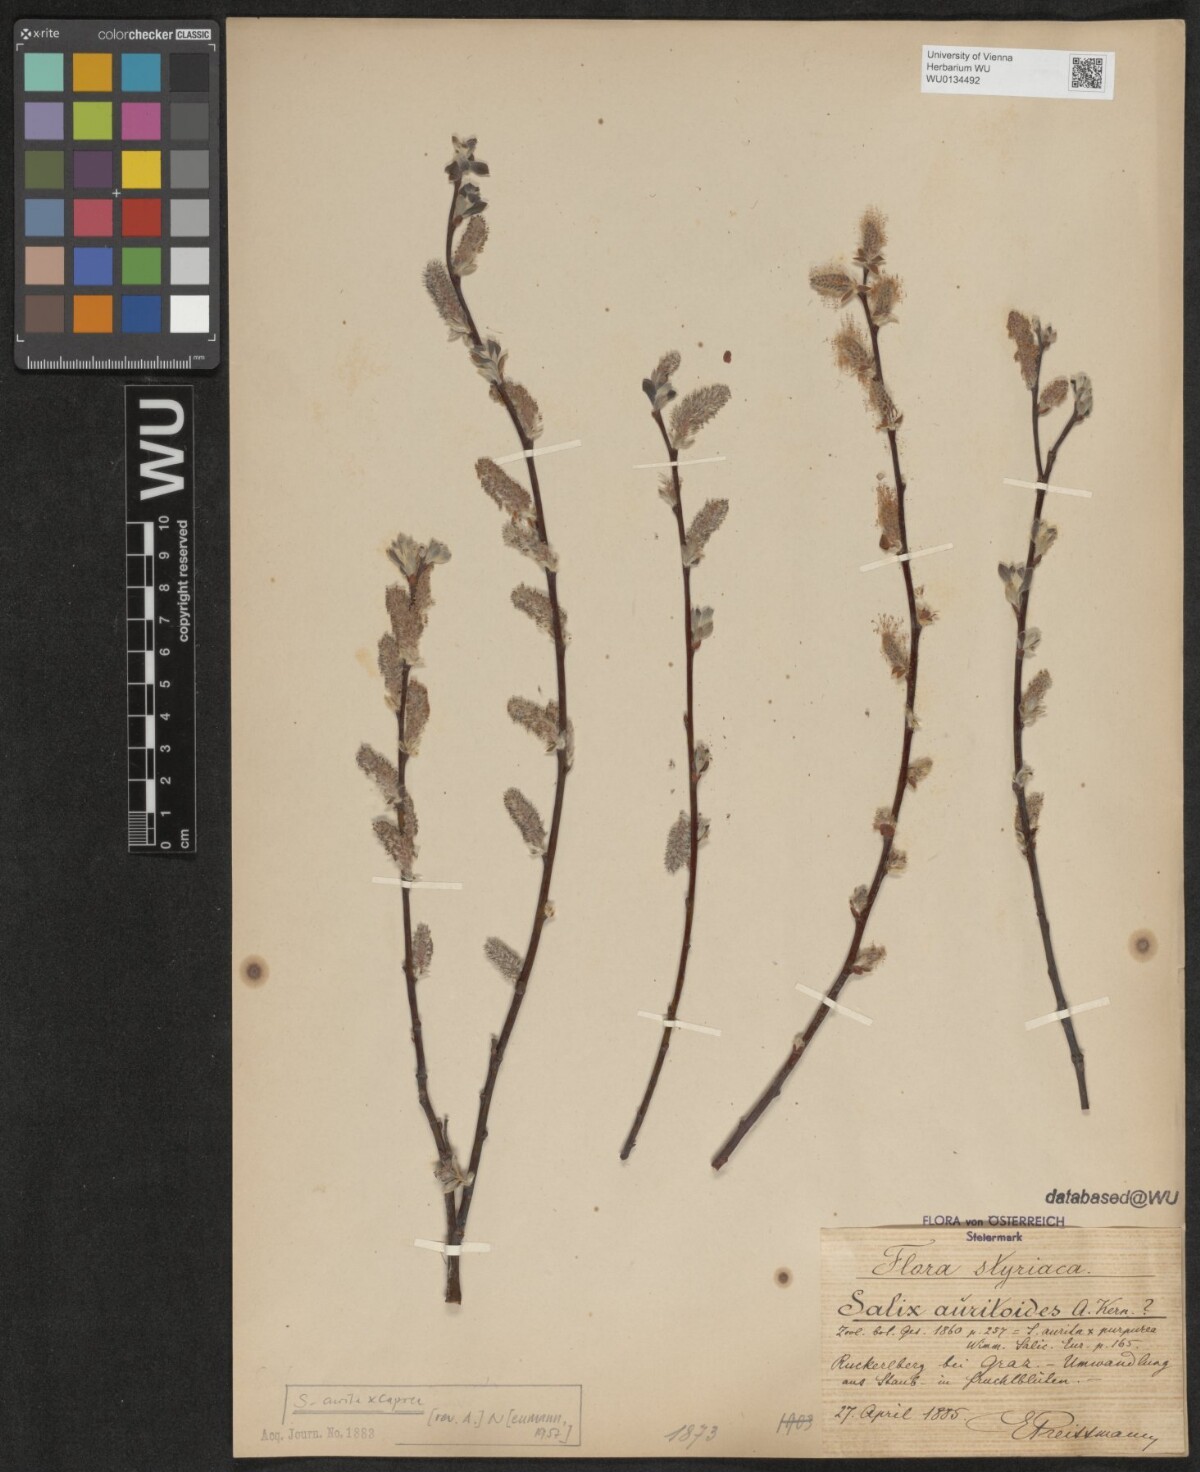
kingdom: Plantae
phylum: Tracheophyta
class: Magnoliopsida
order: Malpighiales
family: Salicaceae
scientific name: Salicaceae
